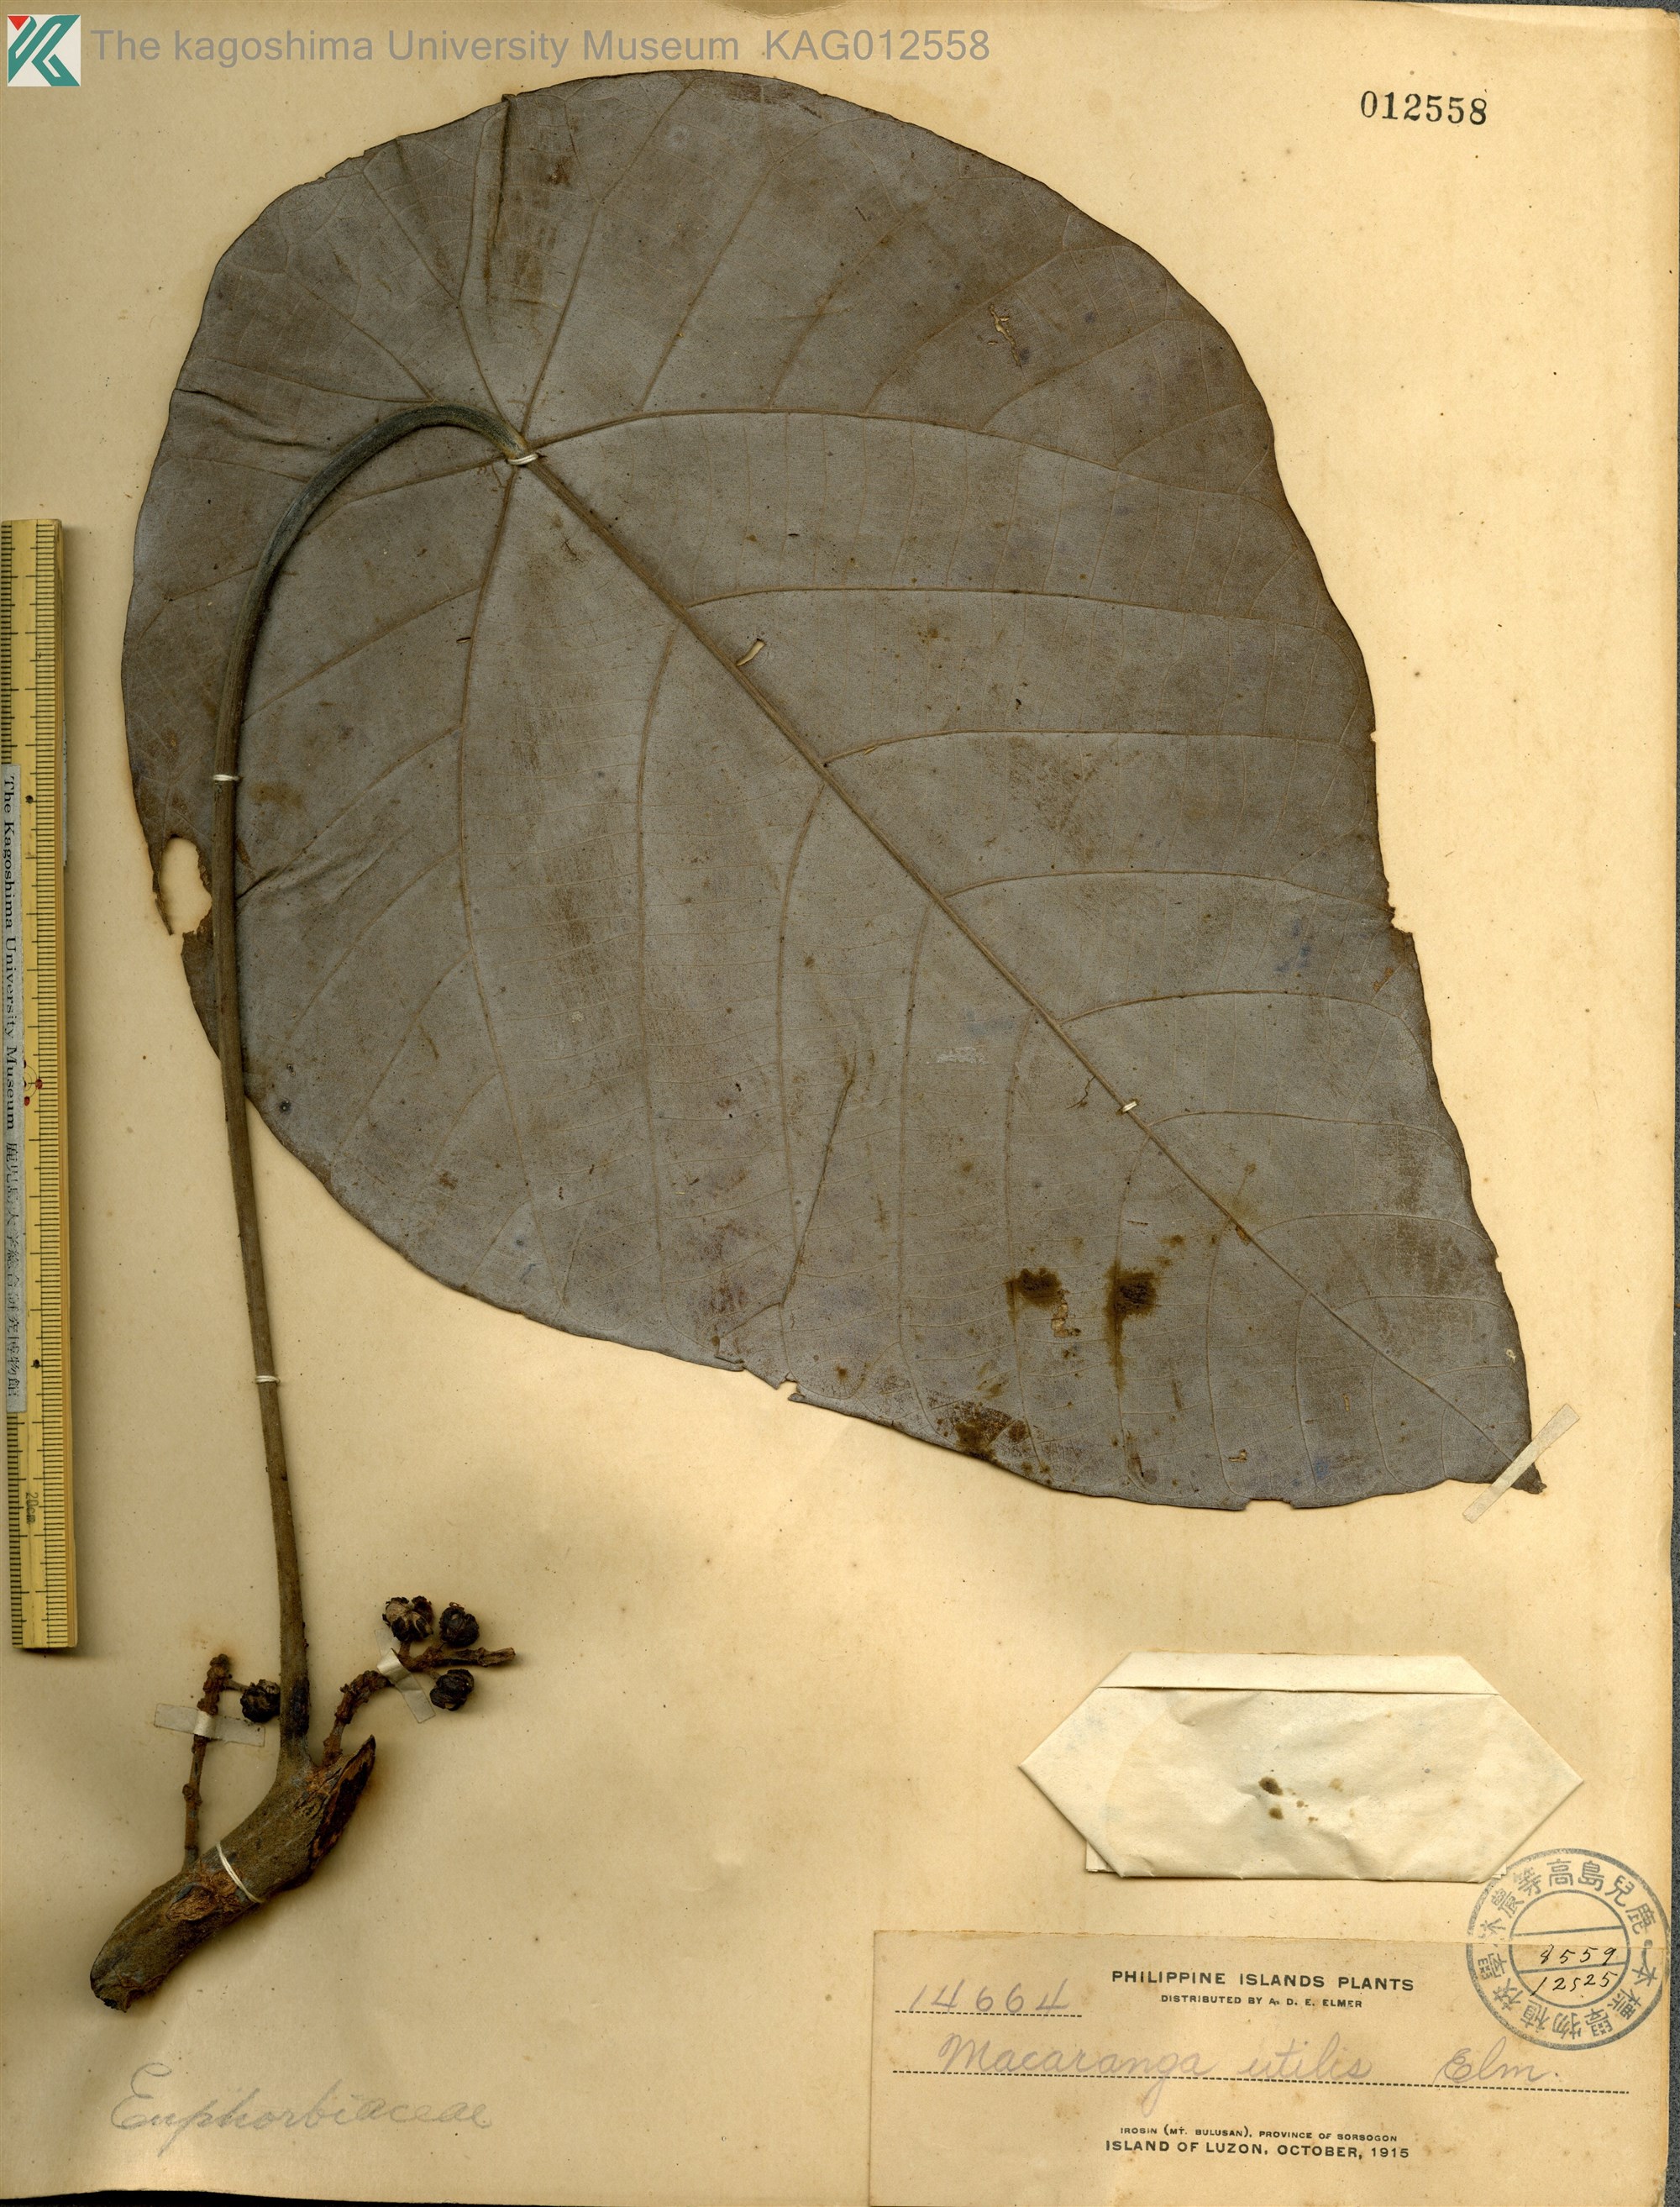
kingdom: Plantae
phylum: Tracheophyta
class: Magnoliopsida
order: Malpighiales
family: Euphorbiaceae
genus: Macaranga
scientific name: Macaranga bicolor
